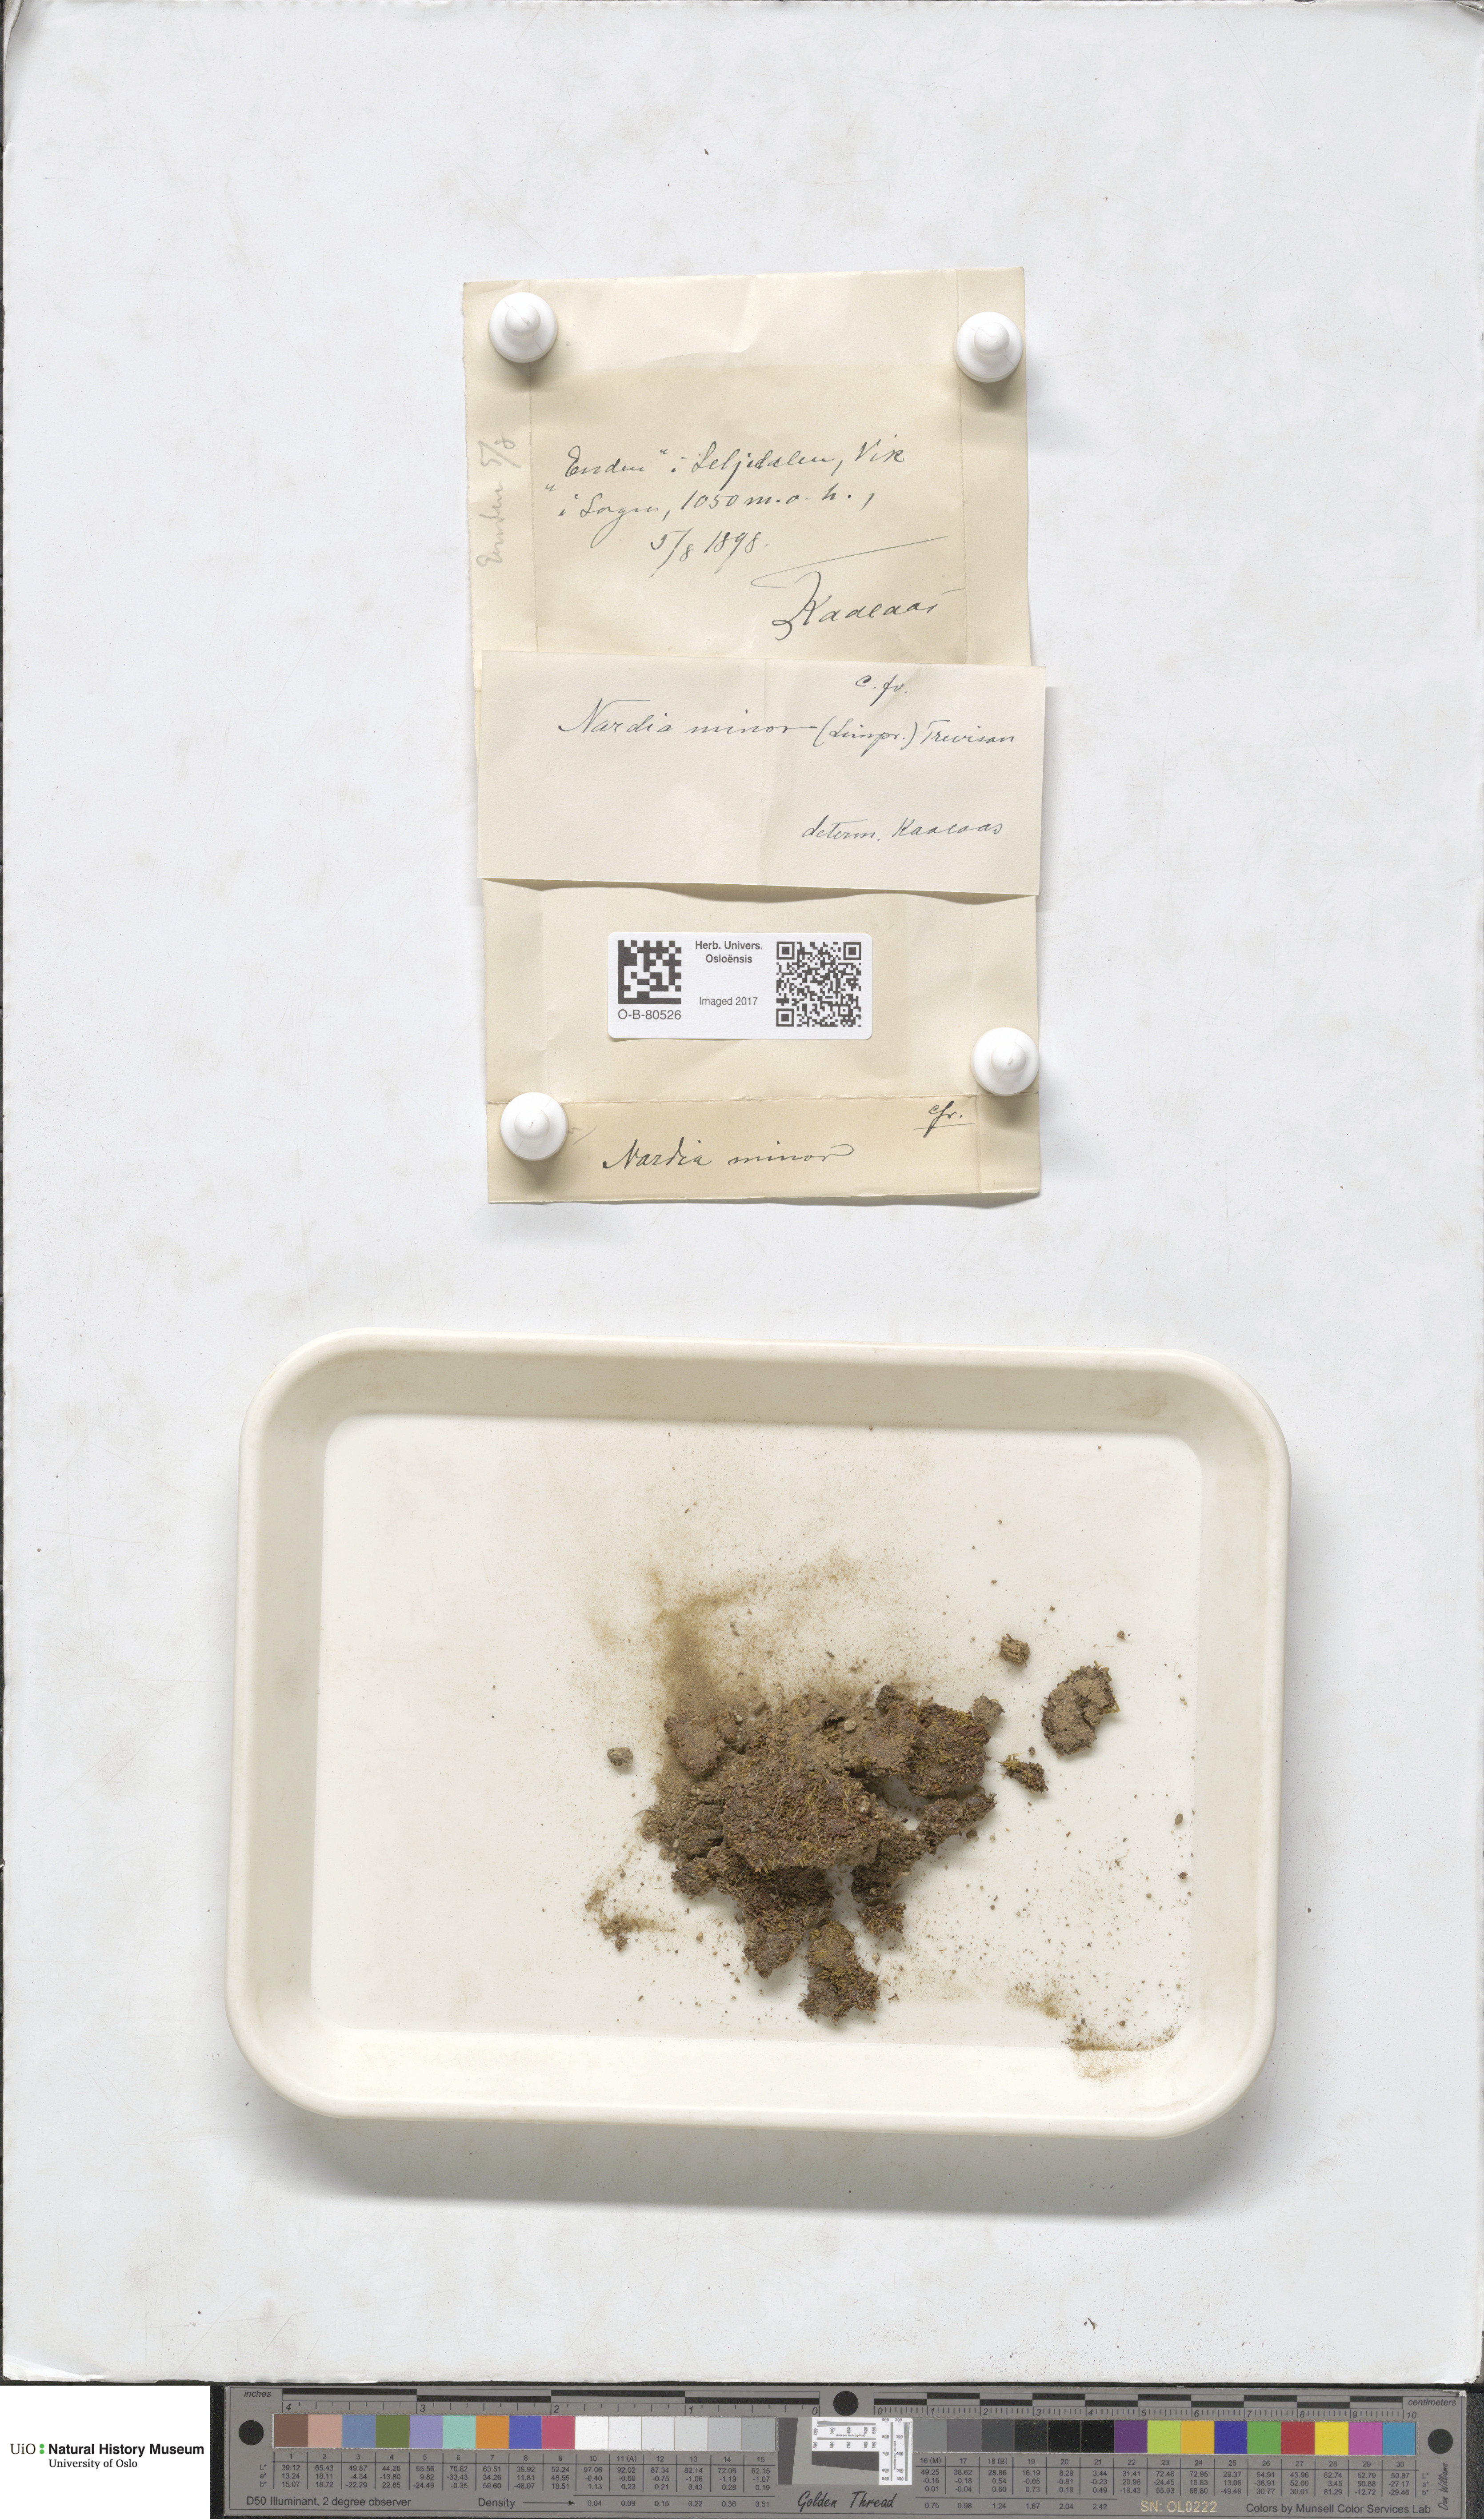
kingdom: Plantae
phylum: Marchantiophyta
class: Jungermanniopsida
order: Jungermanniales
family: Gymnomitriaceae
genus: Nardia
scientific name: Nardia geoscyphus
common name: Earth-cup flapwort
